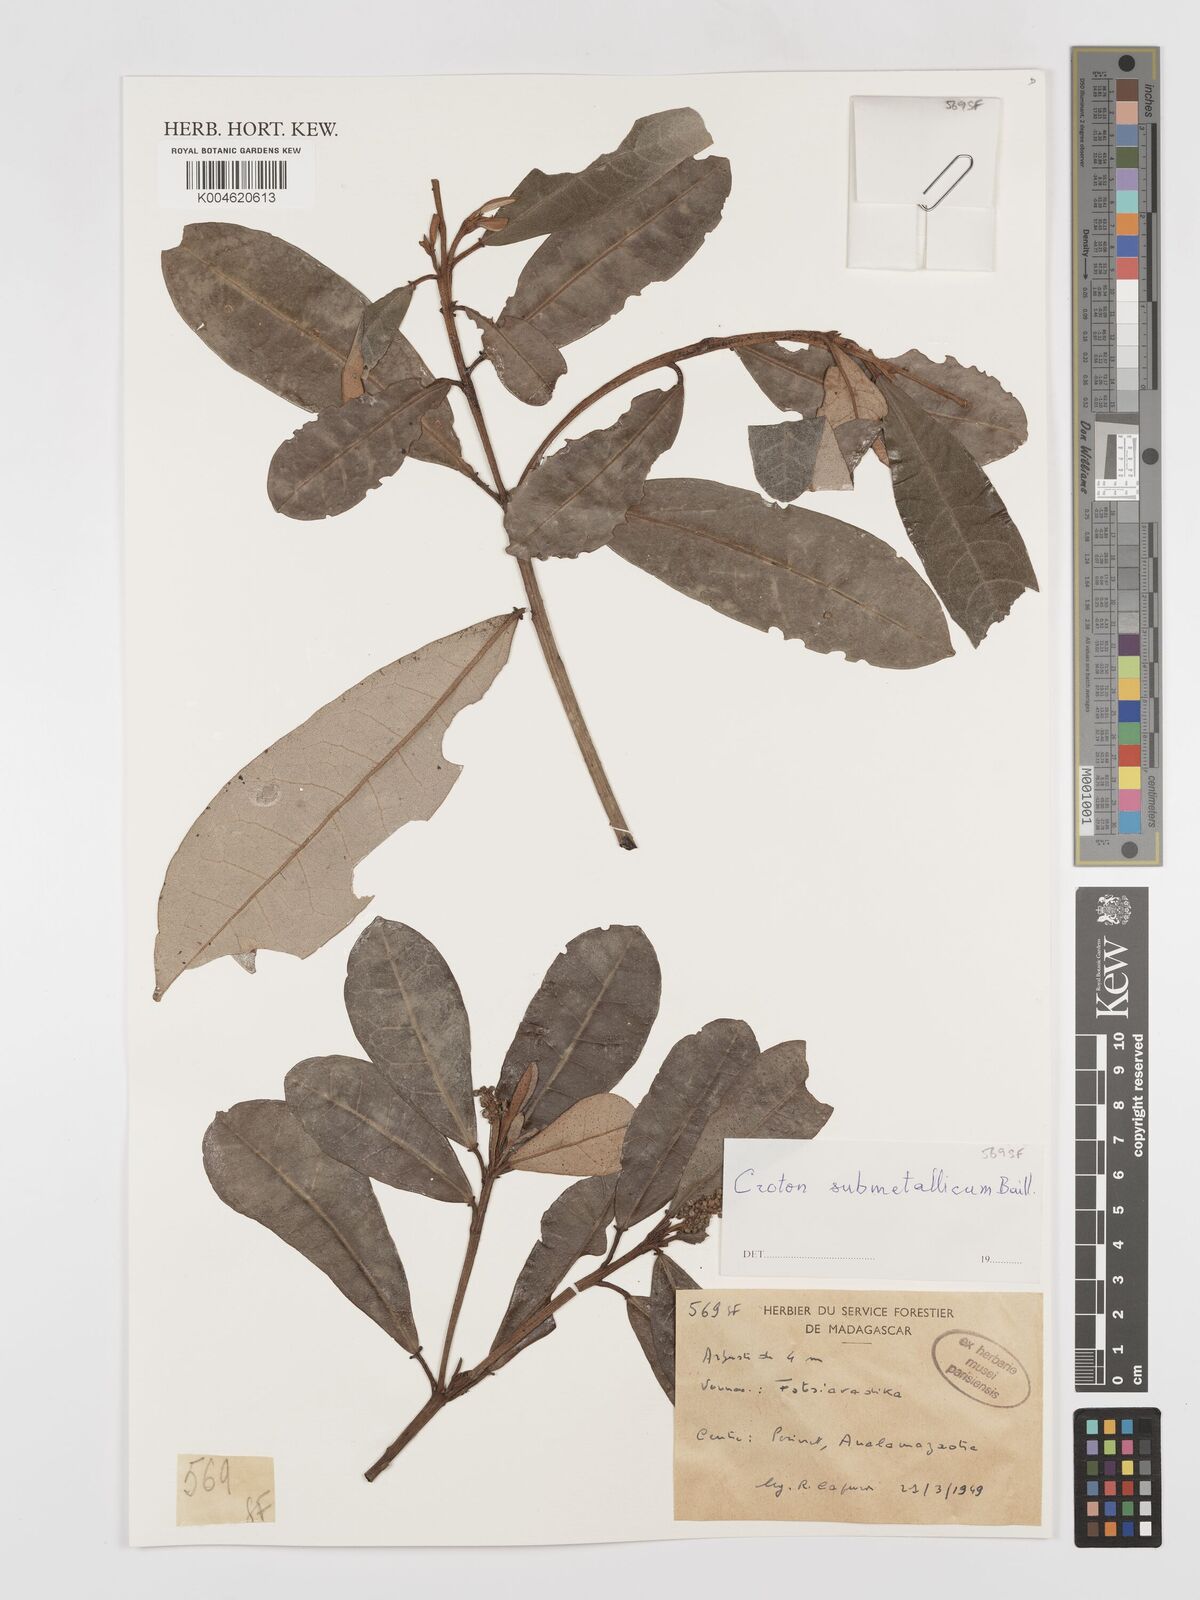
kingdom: Plantae
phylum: Tracheophyta
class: Magnoliopsida
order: Malpighiales
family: Euphorbiaceae
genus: Croton
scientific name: Croton submetallicus
